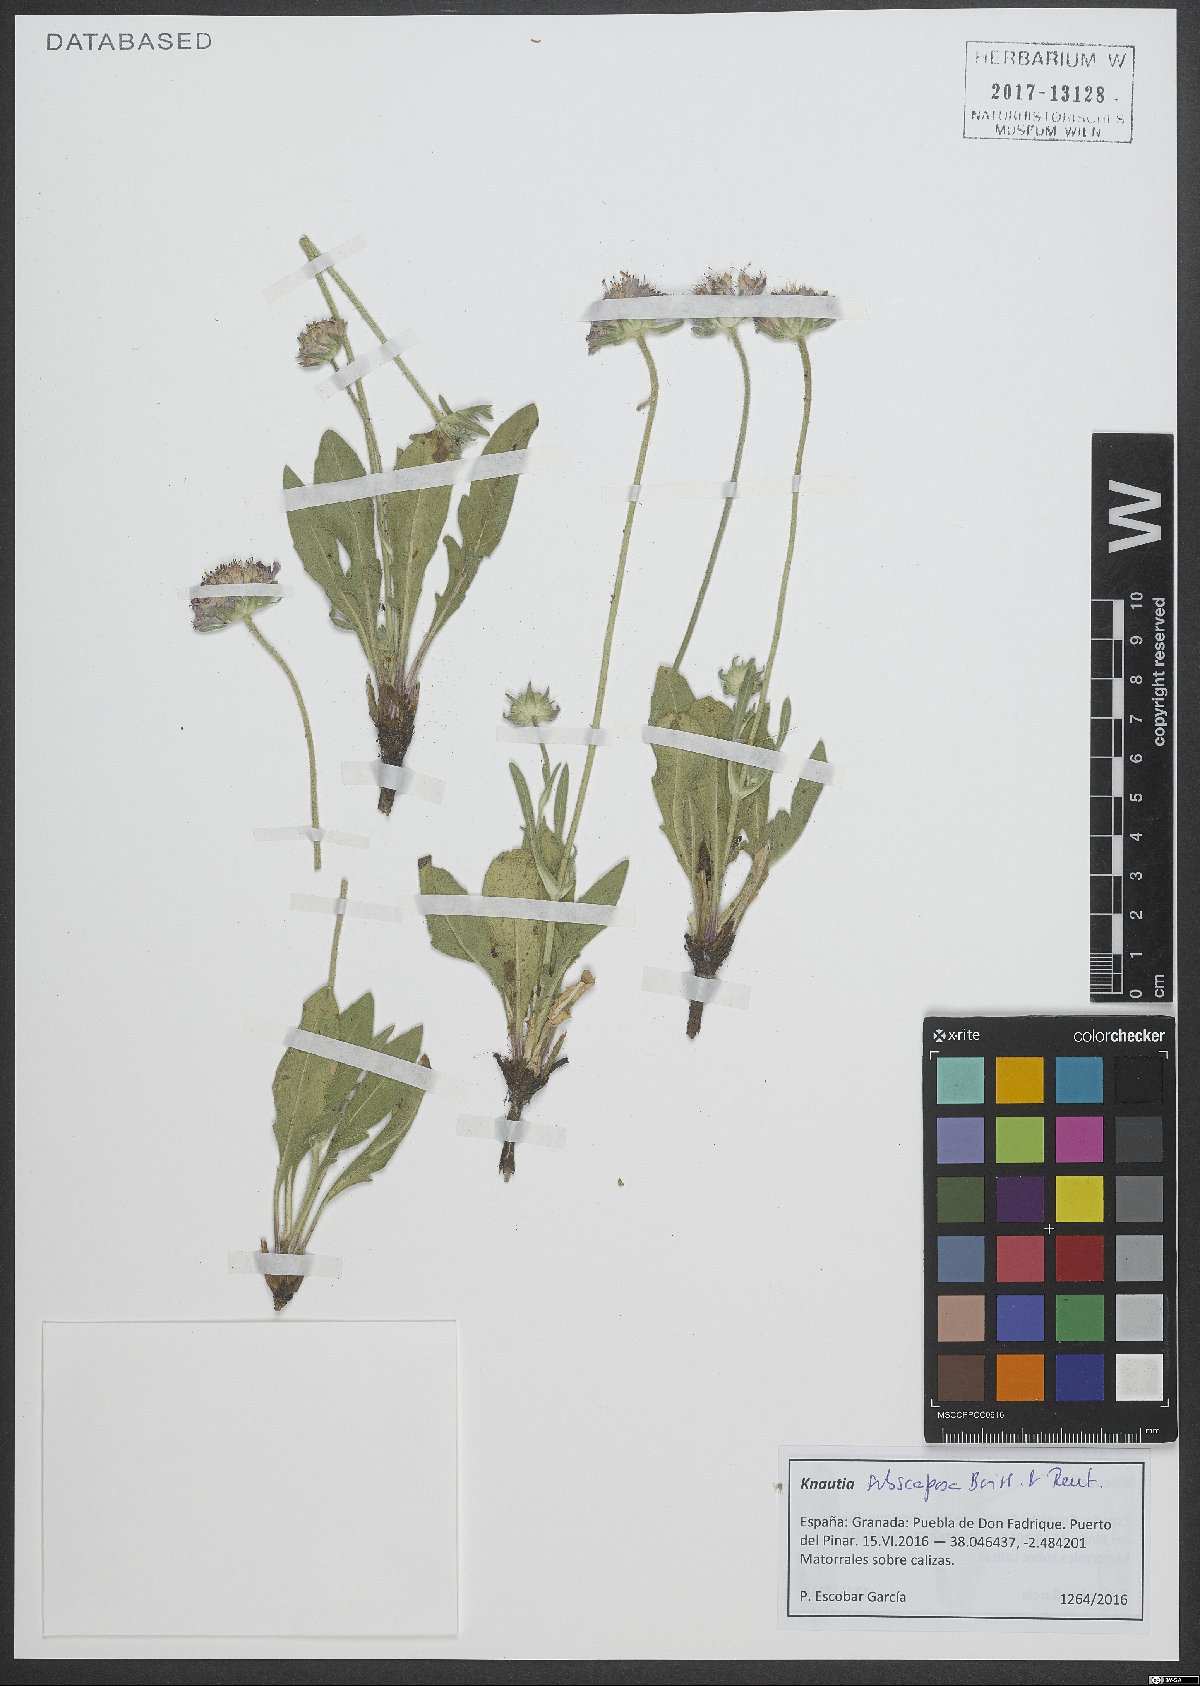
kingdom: Plantae
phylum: Tracheophyta
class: Magnoliopsida
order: Dipsacales
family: Caprifoliaceae
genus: Knautia
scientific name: Knautia subscaposa
